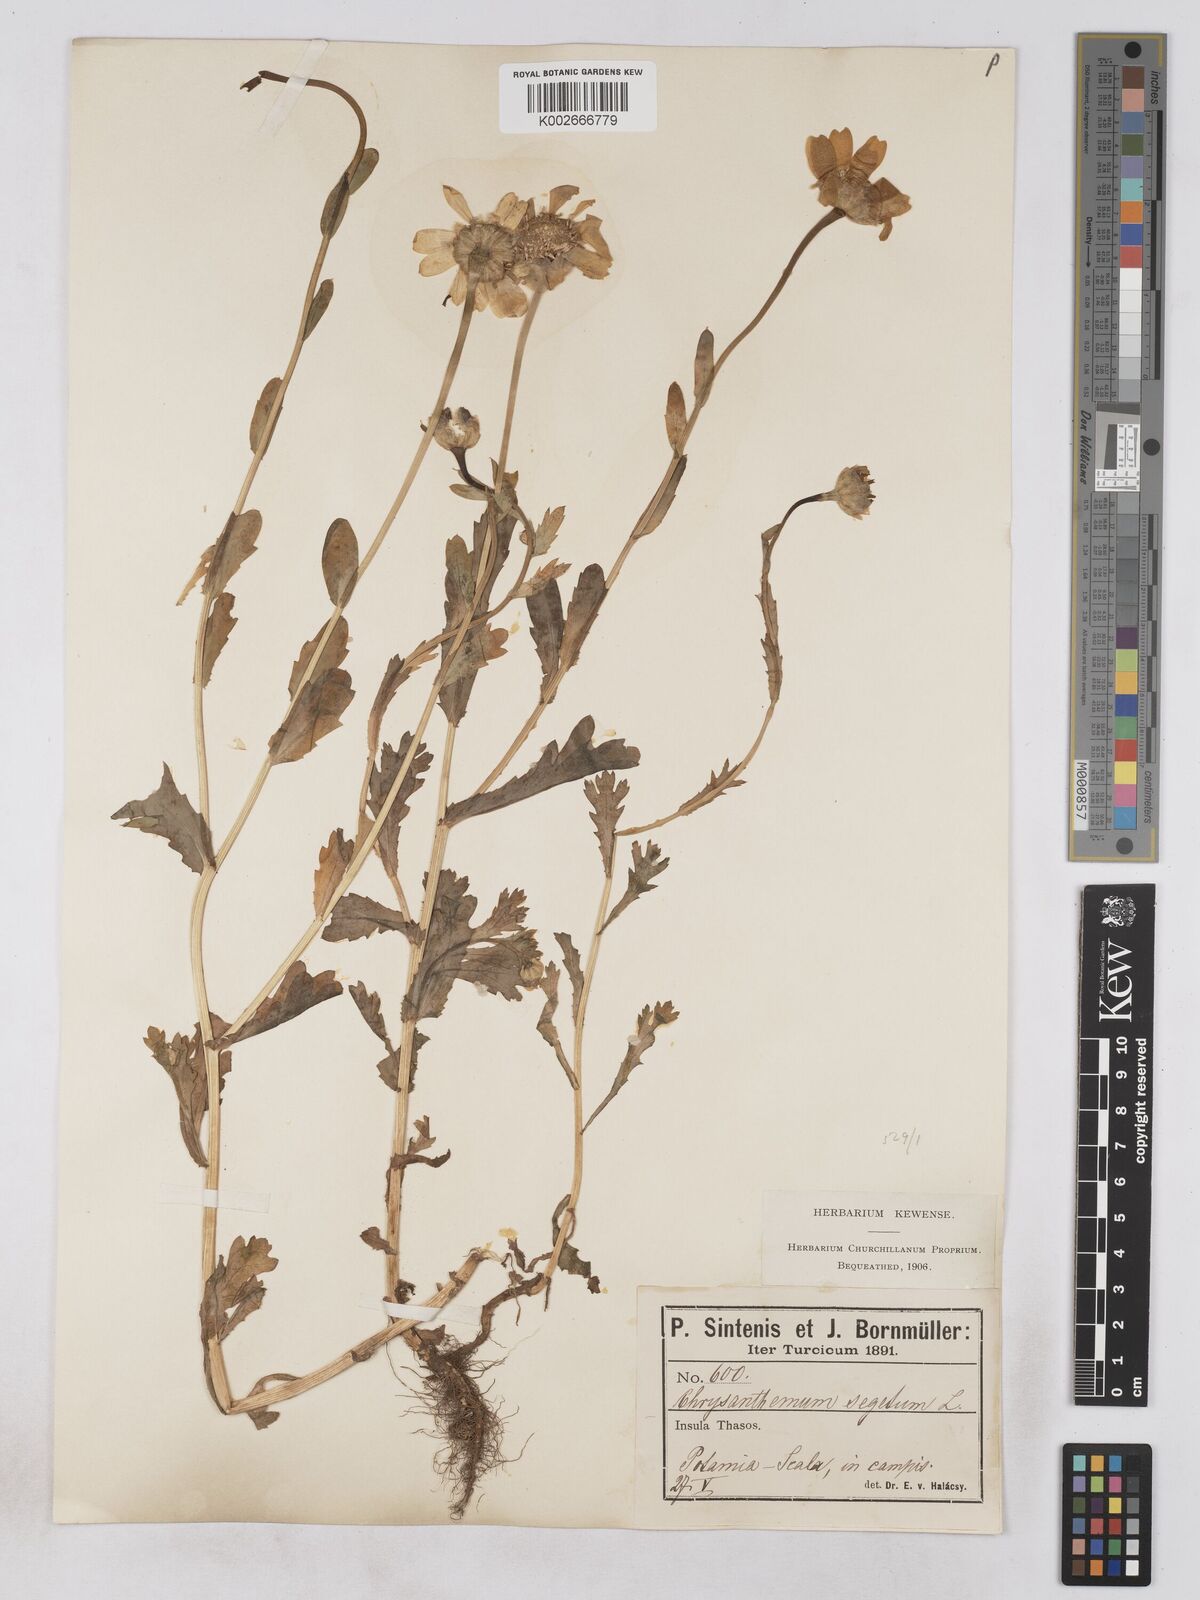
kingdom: Plantae
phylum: Tracheophyta
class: Magnoliopsida
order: Asterales
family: Asteraceae
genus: Glebionis
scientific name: Glebionis segetum
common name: Corndaisy
